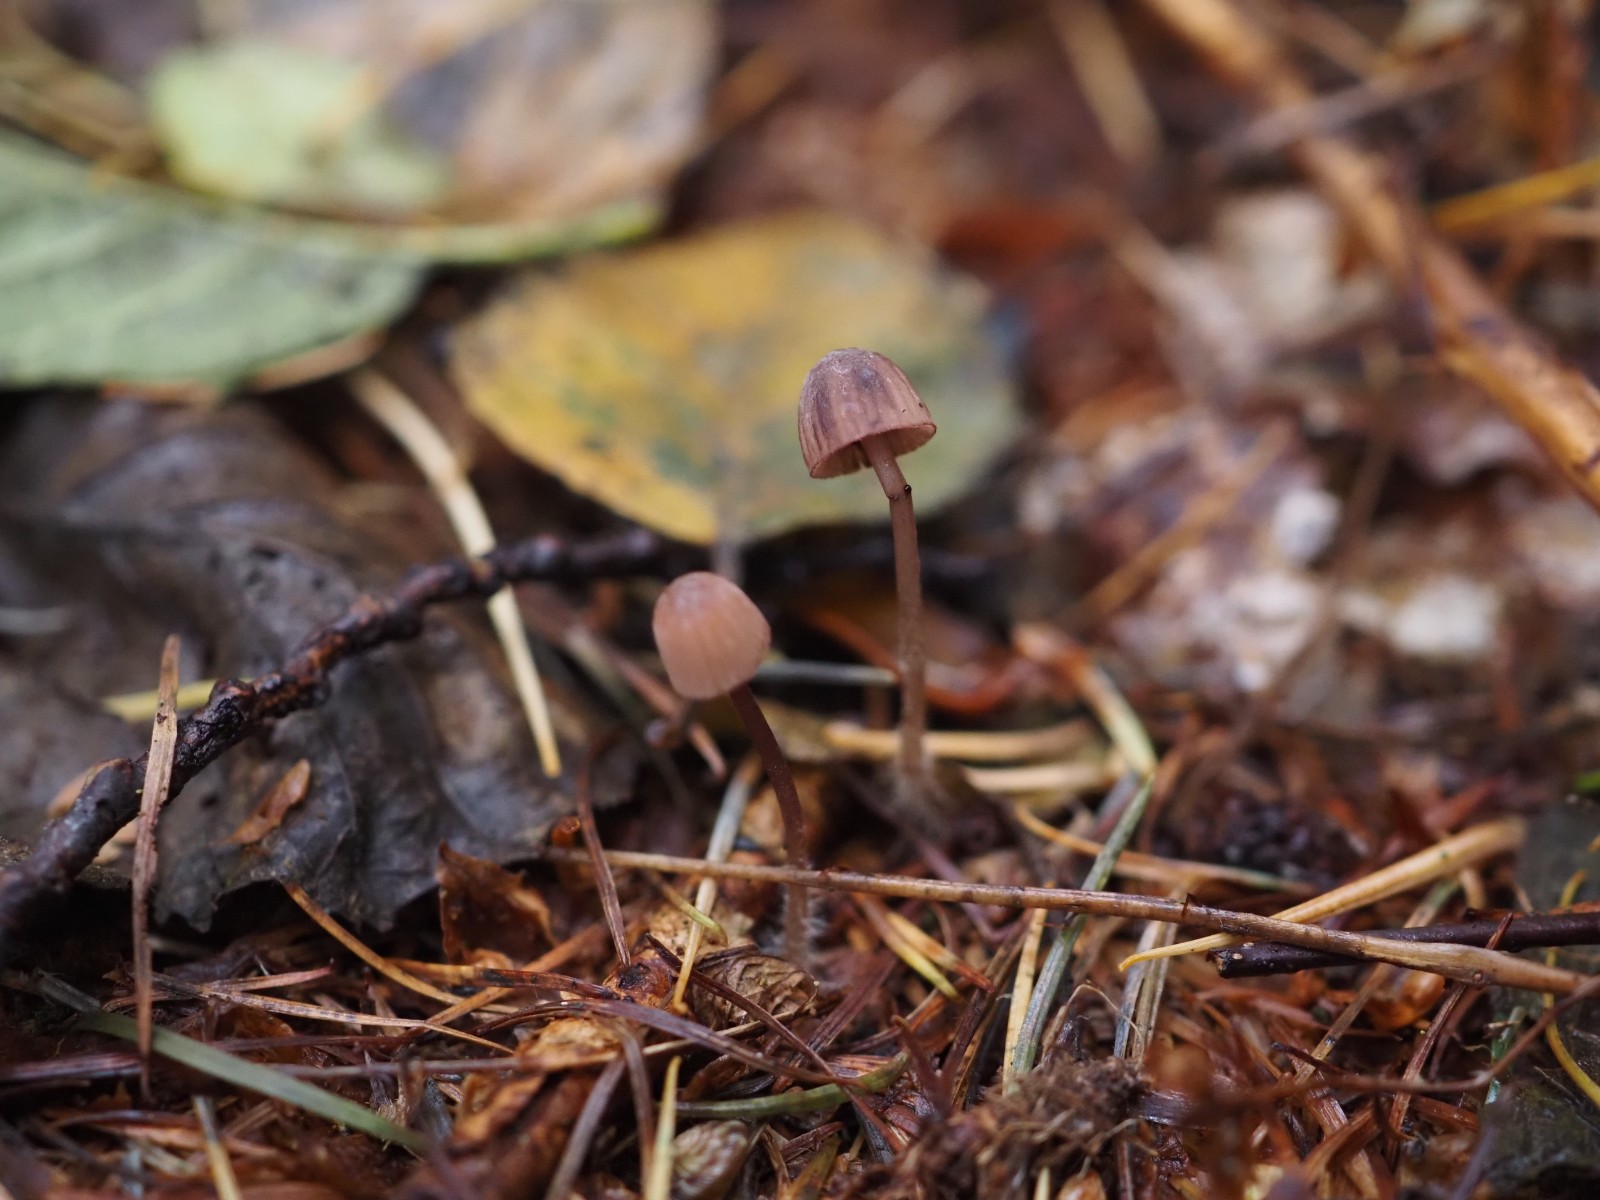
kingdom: Fungi
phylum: Basidiomycota
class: Agaricomycetes
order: Agaricales
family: Mycenaceae
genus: Mycena
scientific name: Mycena sanguinolenta
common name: rødmælket huesvamp
